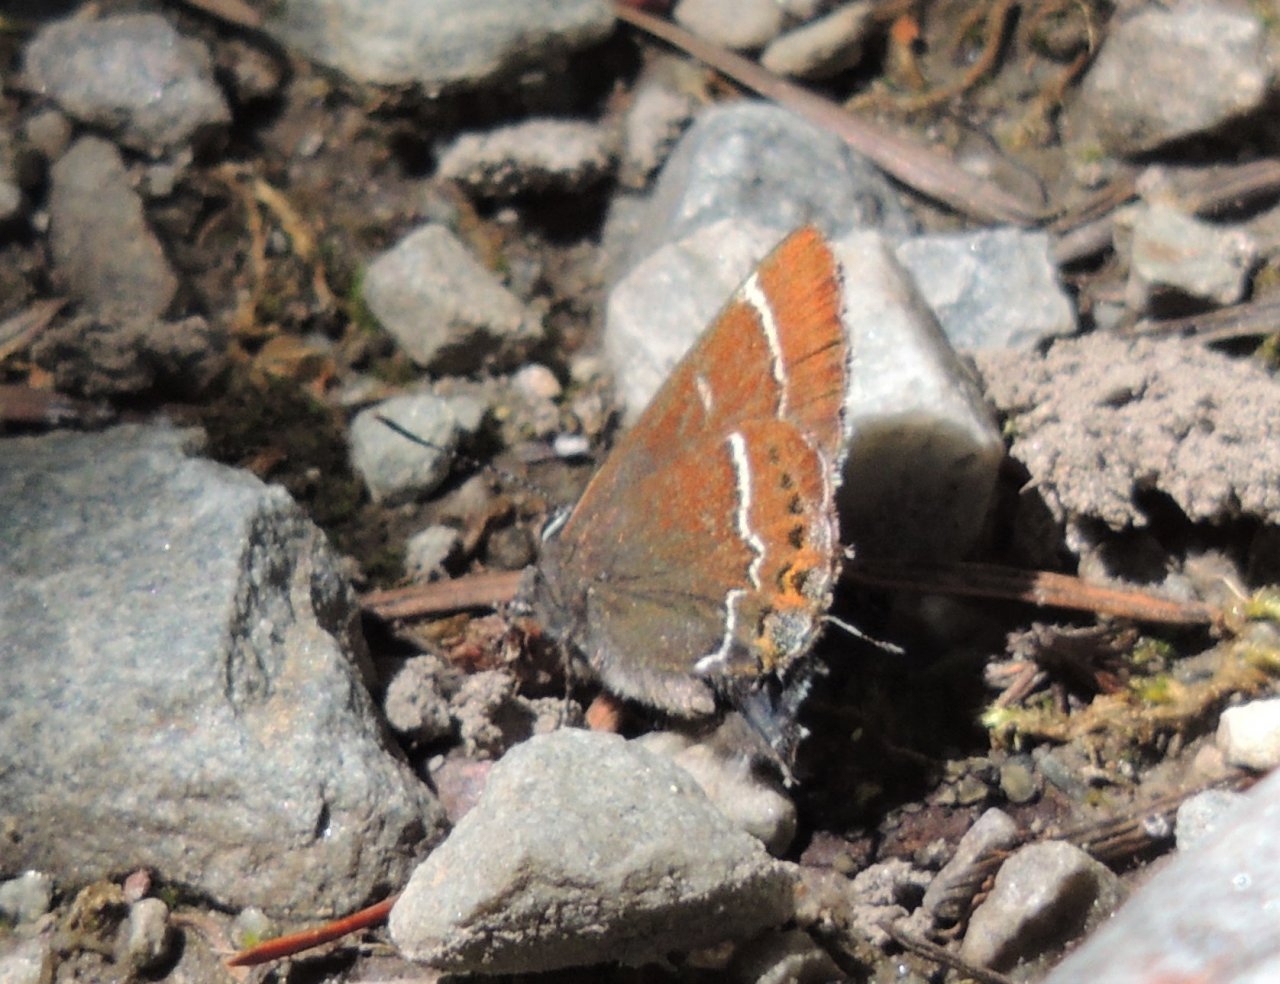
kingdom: Animalia
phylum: Arthropoda
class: Insecta
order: Lepidoptera
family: Lycaenidae
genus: Mitoura
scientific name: Mitoura spinetorum
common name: Thicket Hairstreak
